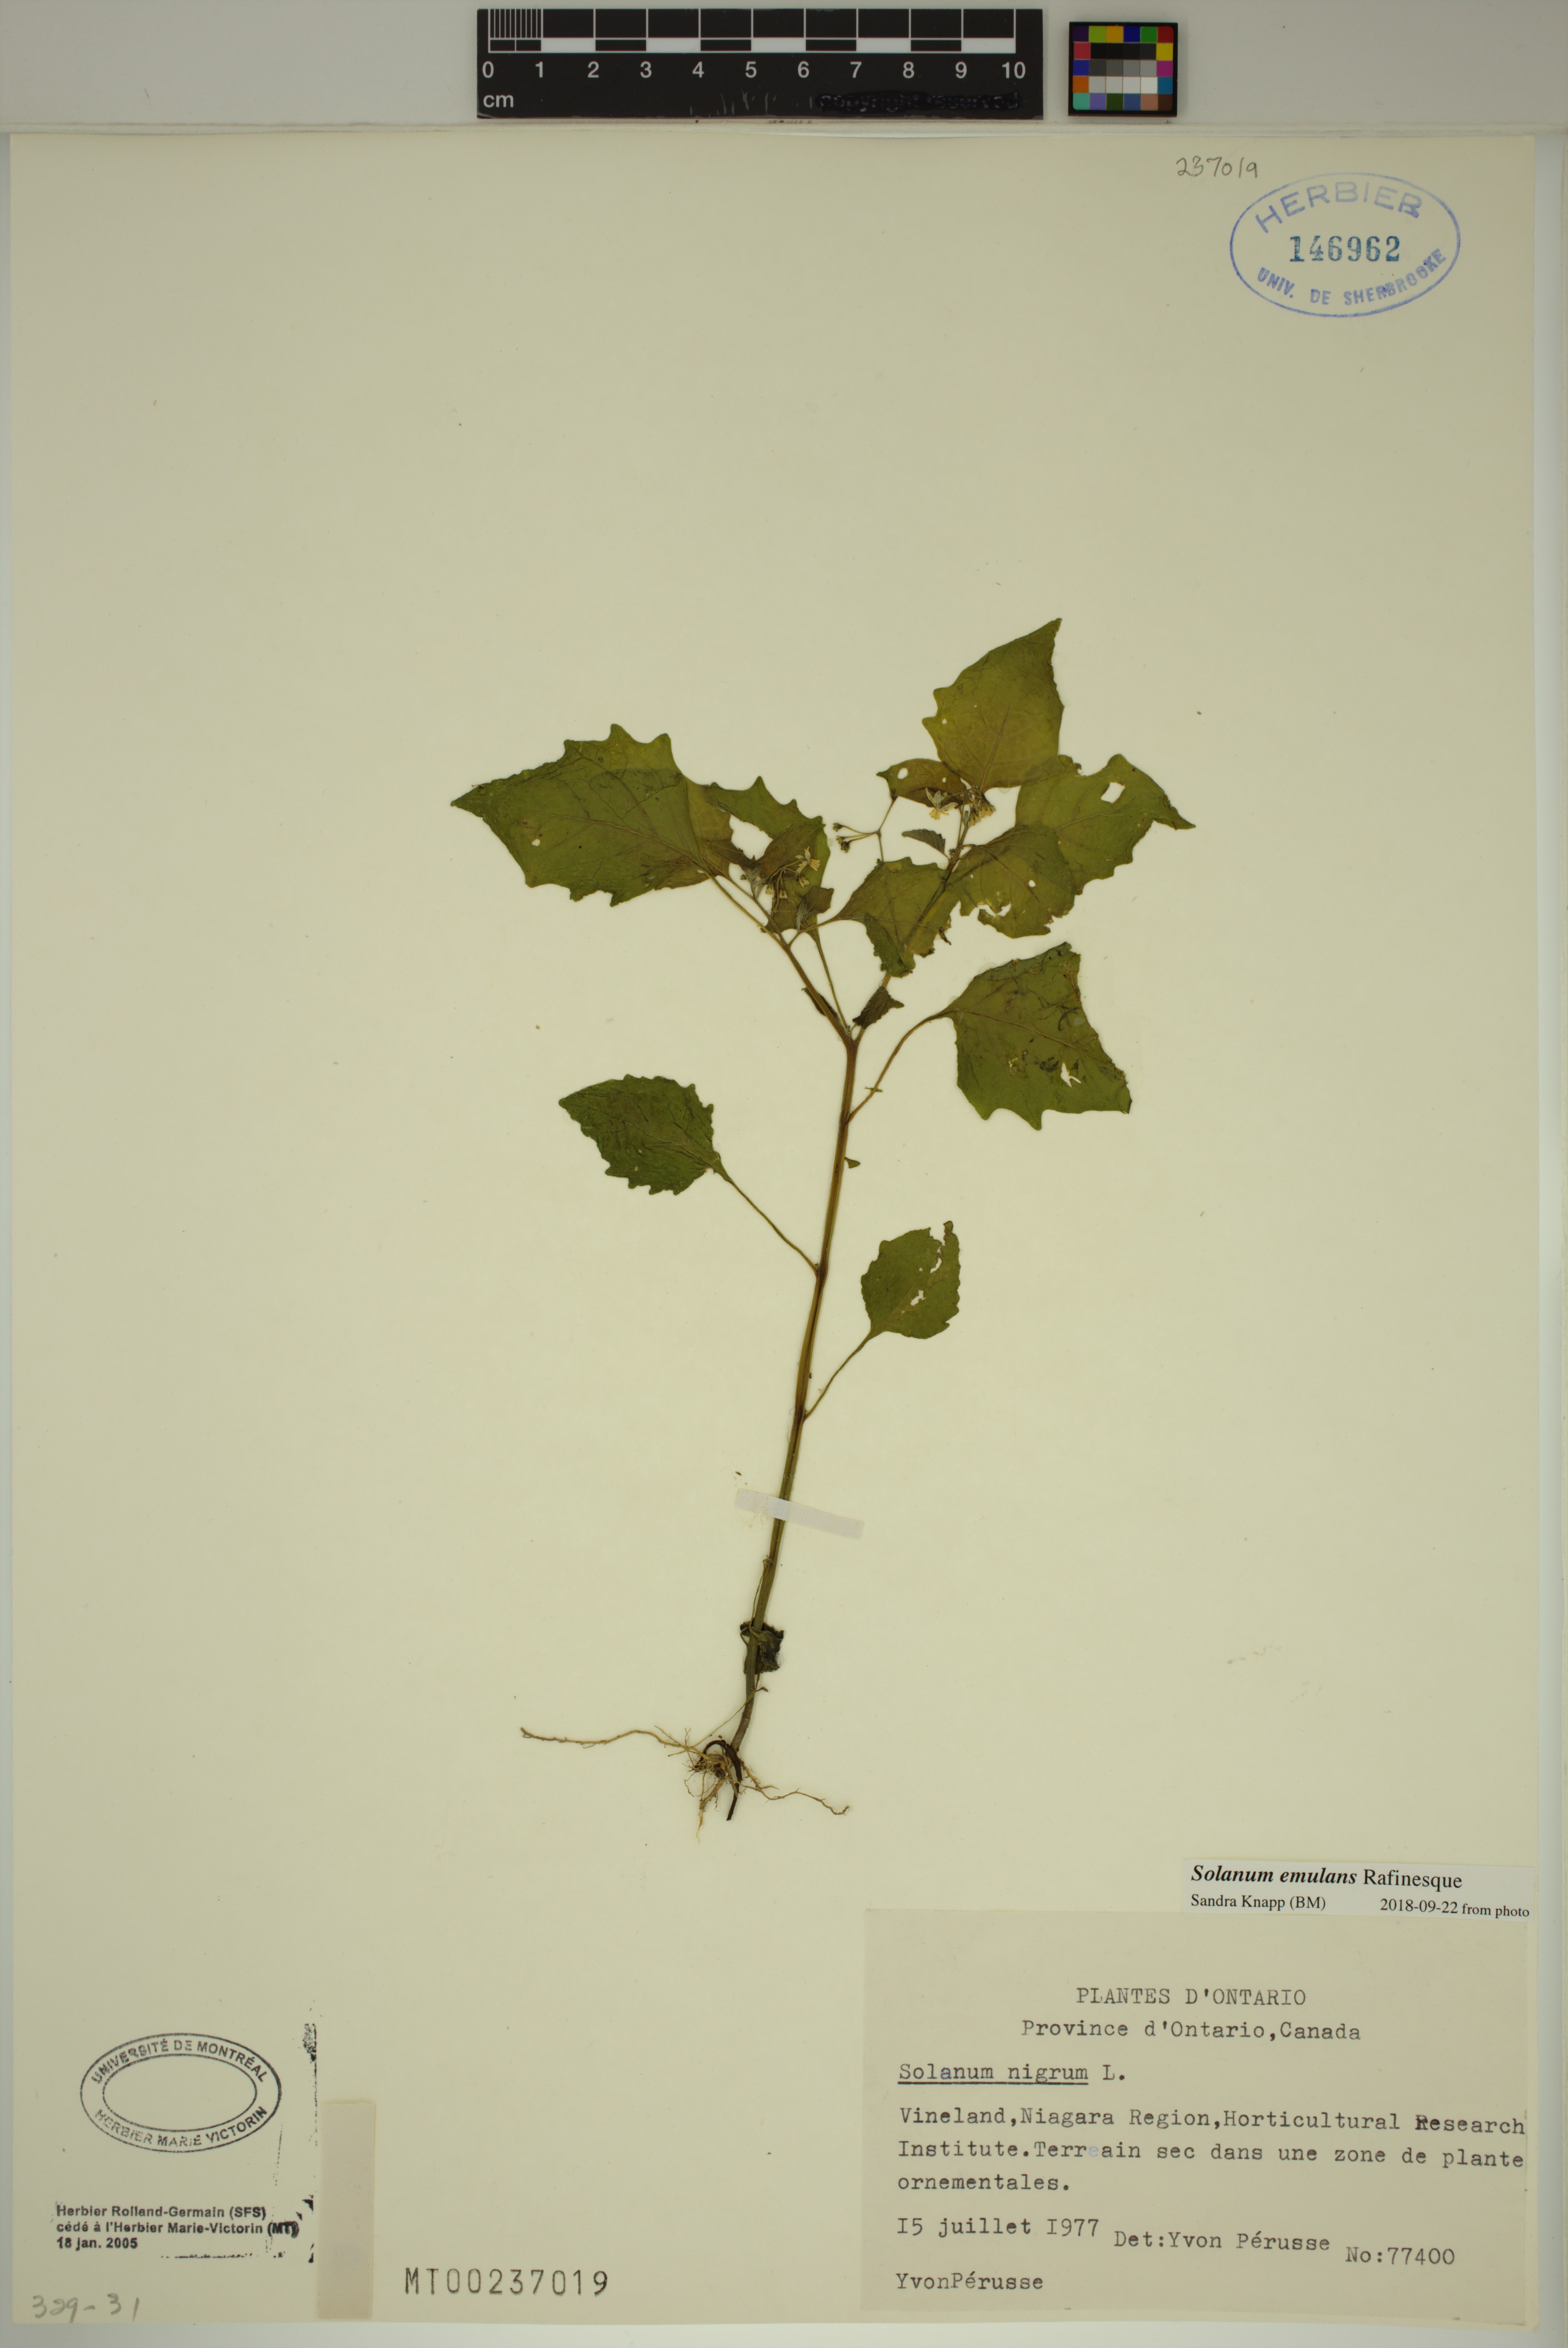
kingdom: Plantae
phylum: Tracheophyta
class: Magnoliopsida
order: Solanales
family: Solanaceae
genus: Solanum
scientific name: Solanum emulans
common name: Eastern black nightshade
